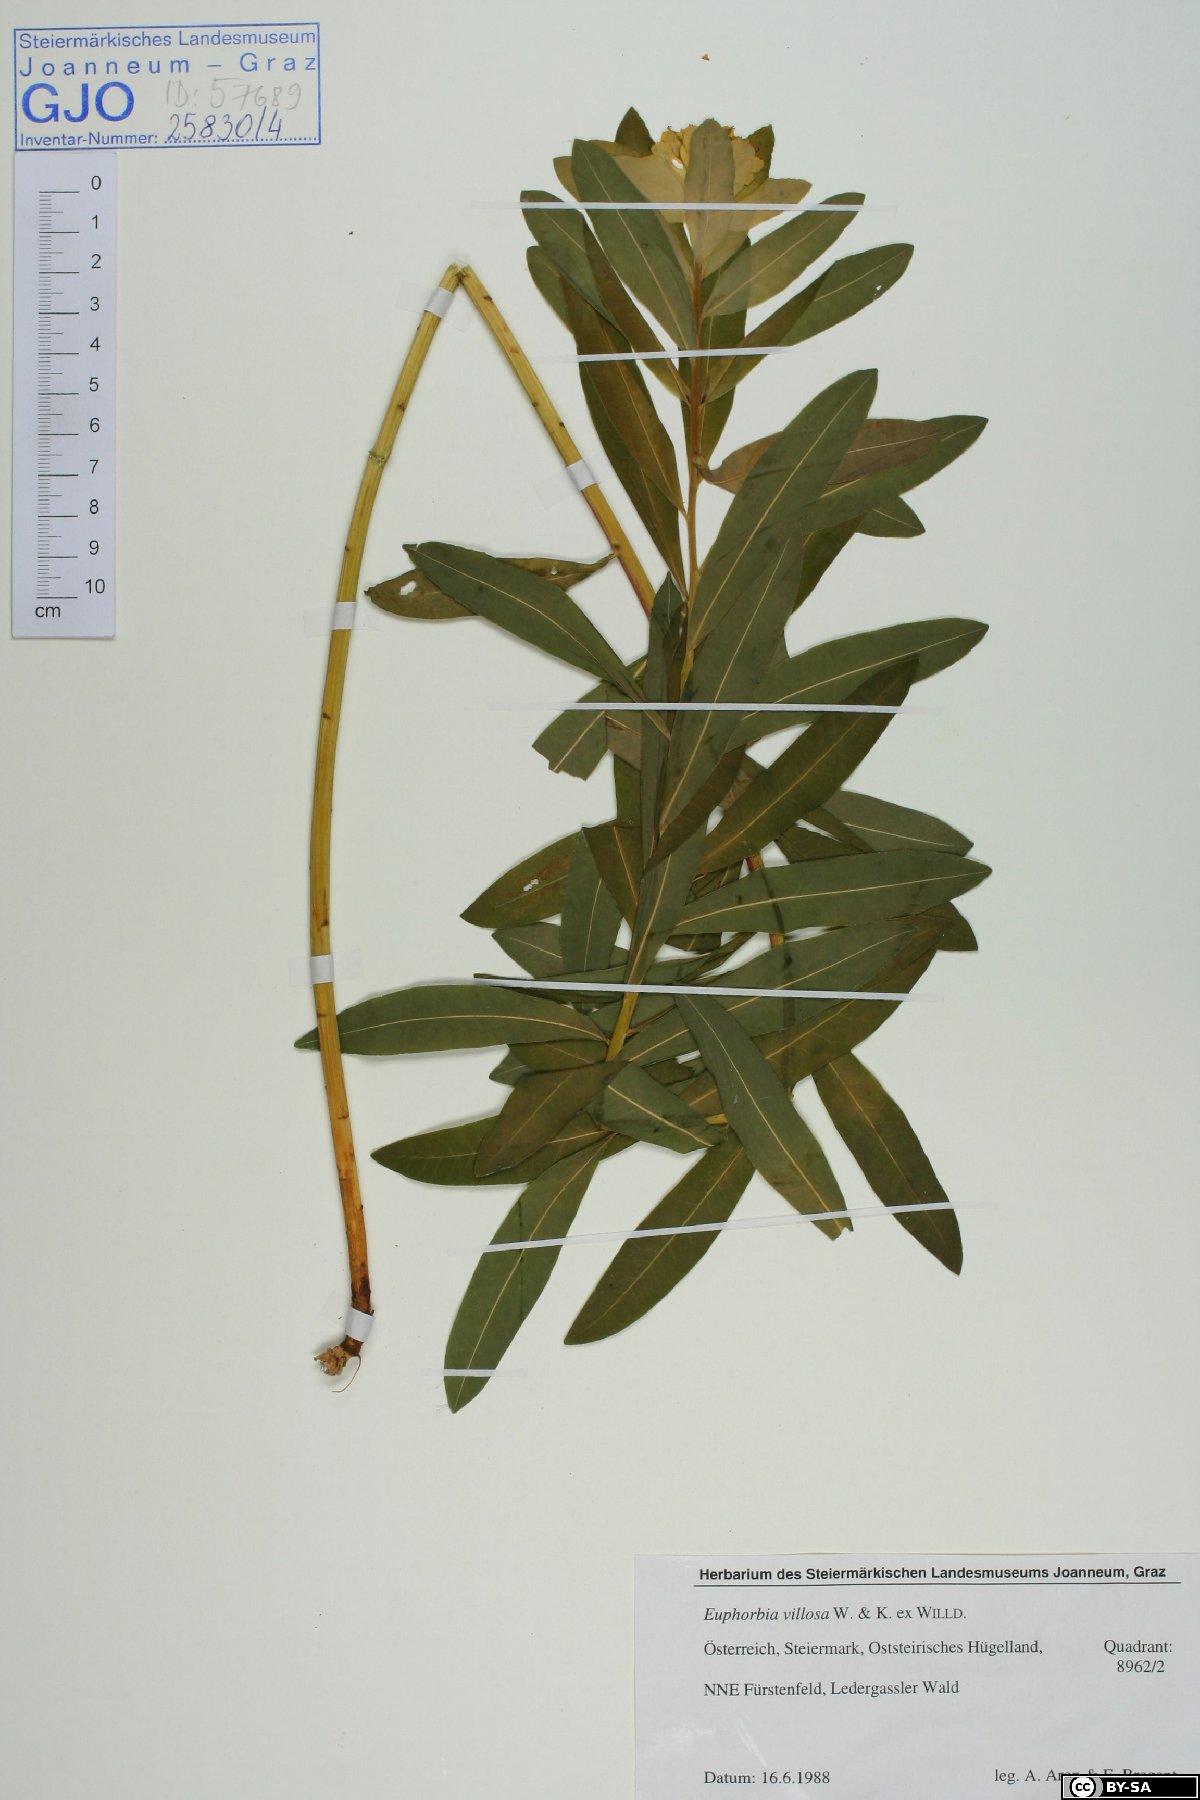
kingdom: Plantae
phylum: Tracheophyta
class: Magnoliopsida
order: Malpighiales
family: Euphorbiaceae
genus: Euphorbia
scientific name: Euphorbia illirica
